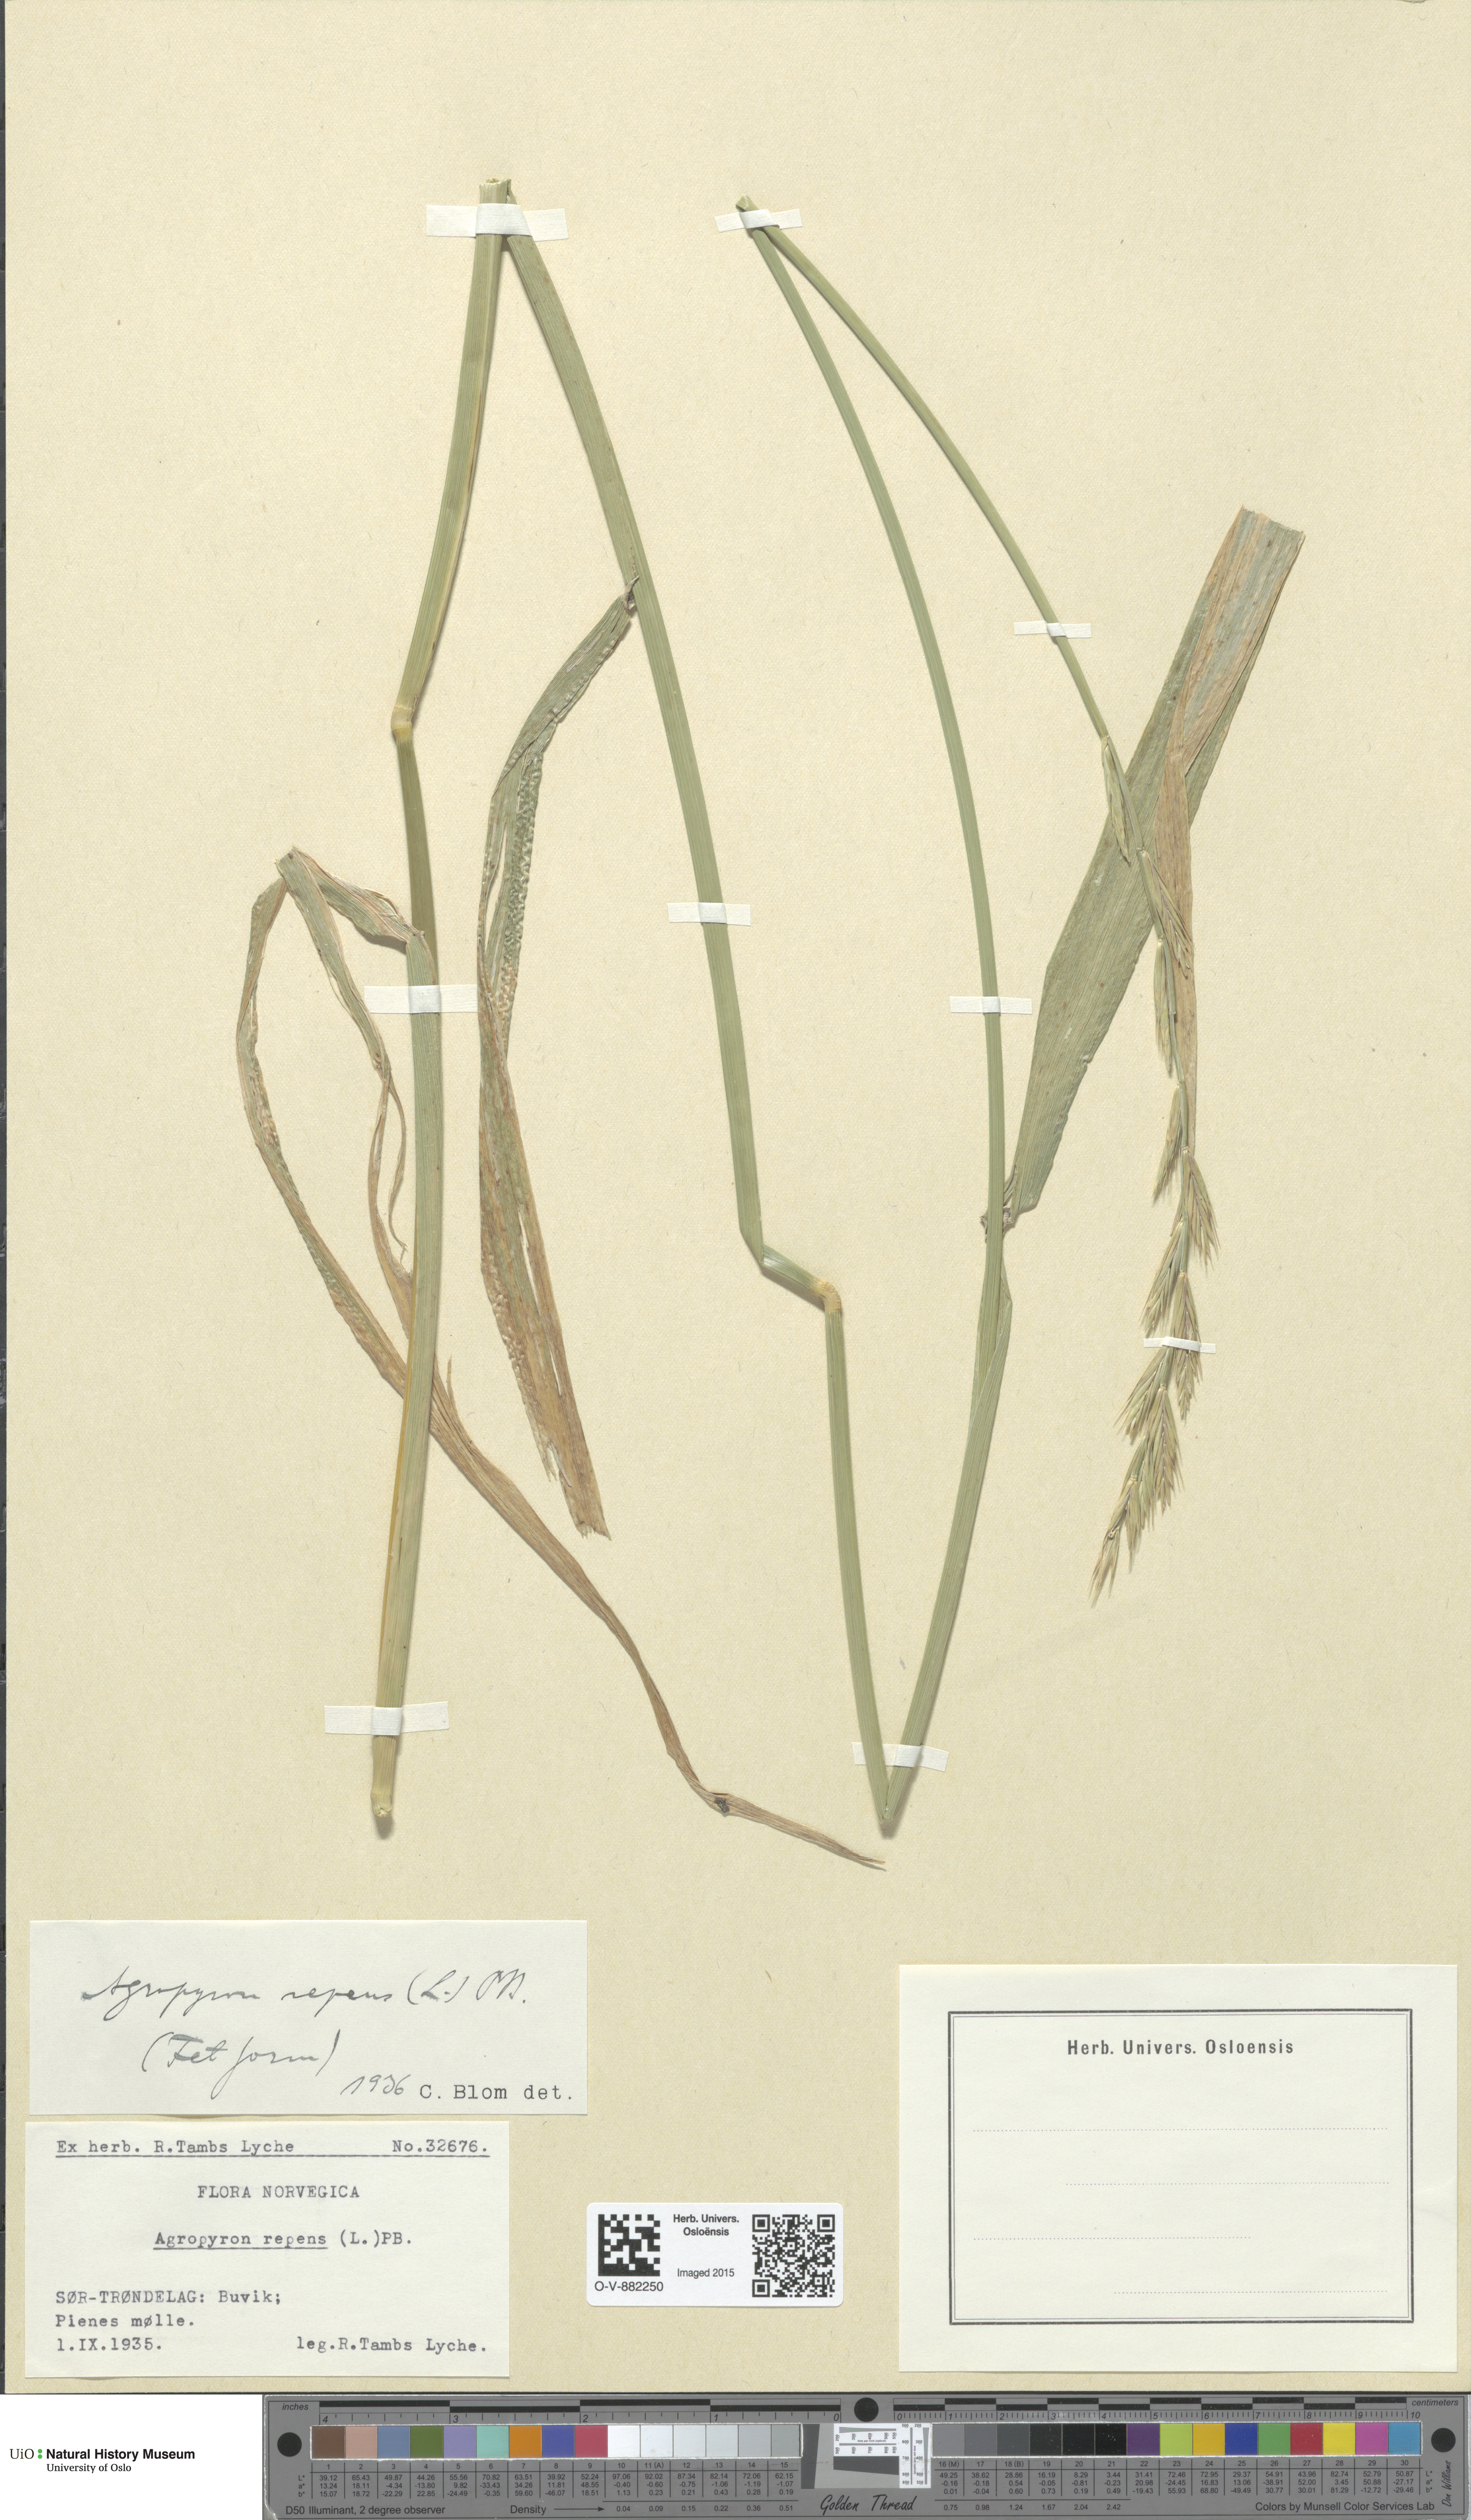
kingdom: Plantae
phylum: Tracheophyta
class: Liliopsida
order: Poales
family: Poaceae
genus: Elymus
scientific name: Elymus repens
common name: Quackgrass
